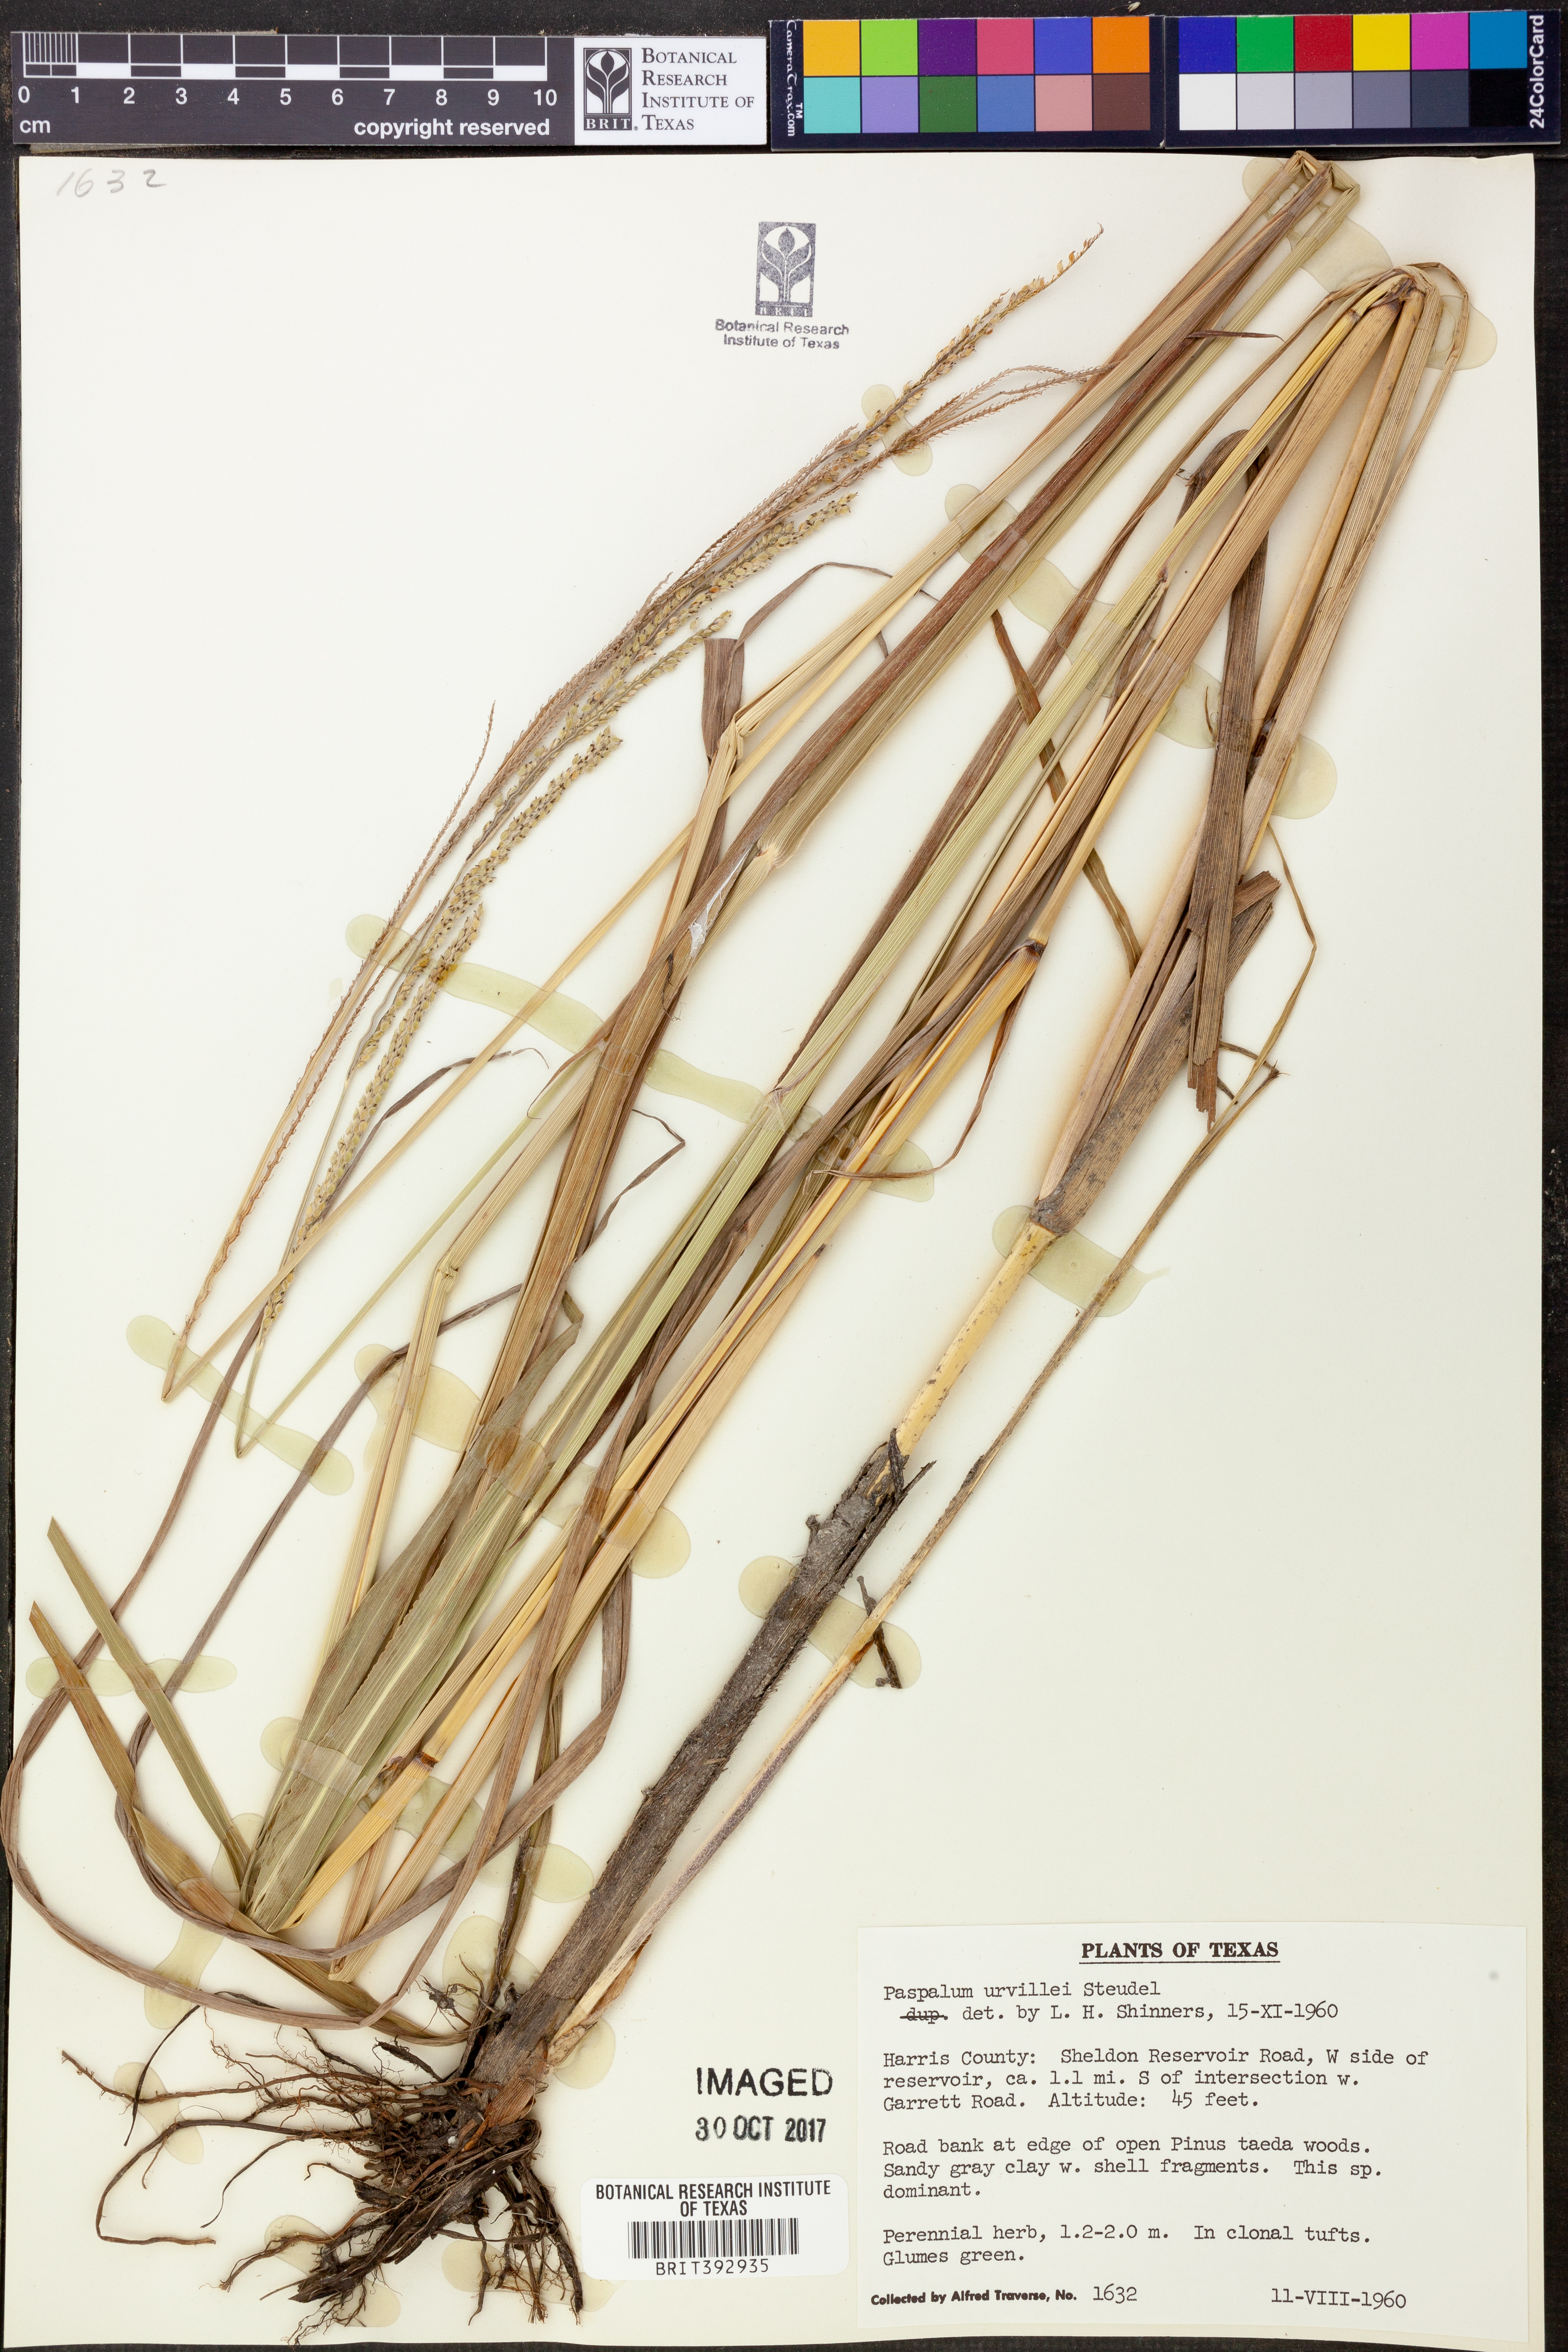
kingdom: Plantae
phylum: Tracheophyta
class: Liliopsida
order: Poales
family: Poaceae
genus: Paspalum
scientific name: Paspalum urvillei
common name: Vasey's grass
